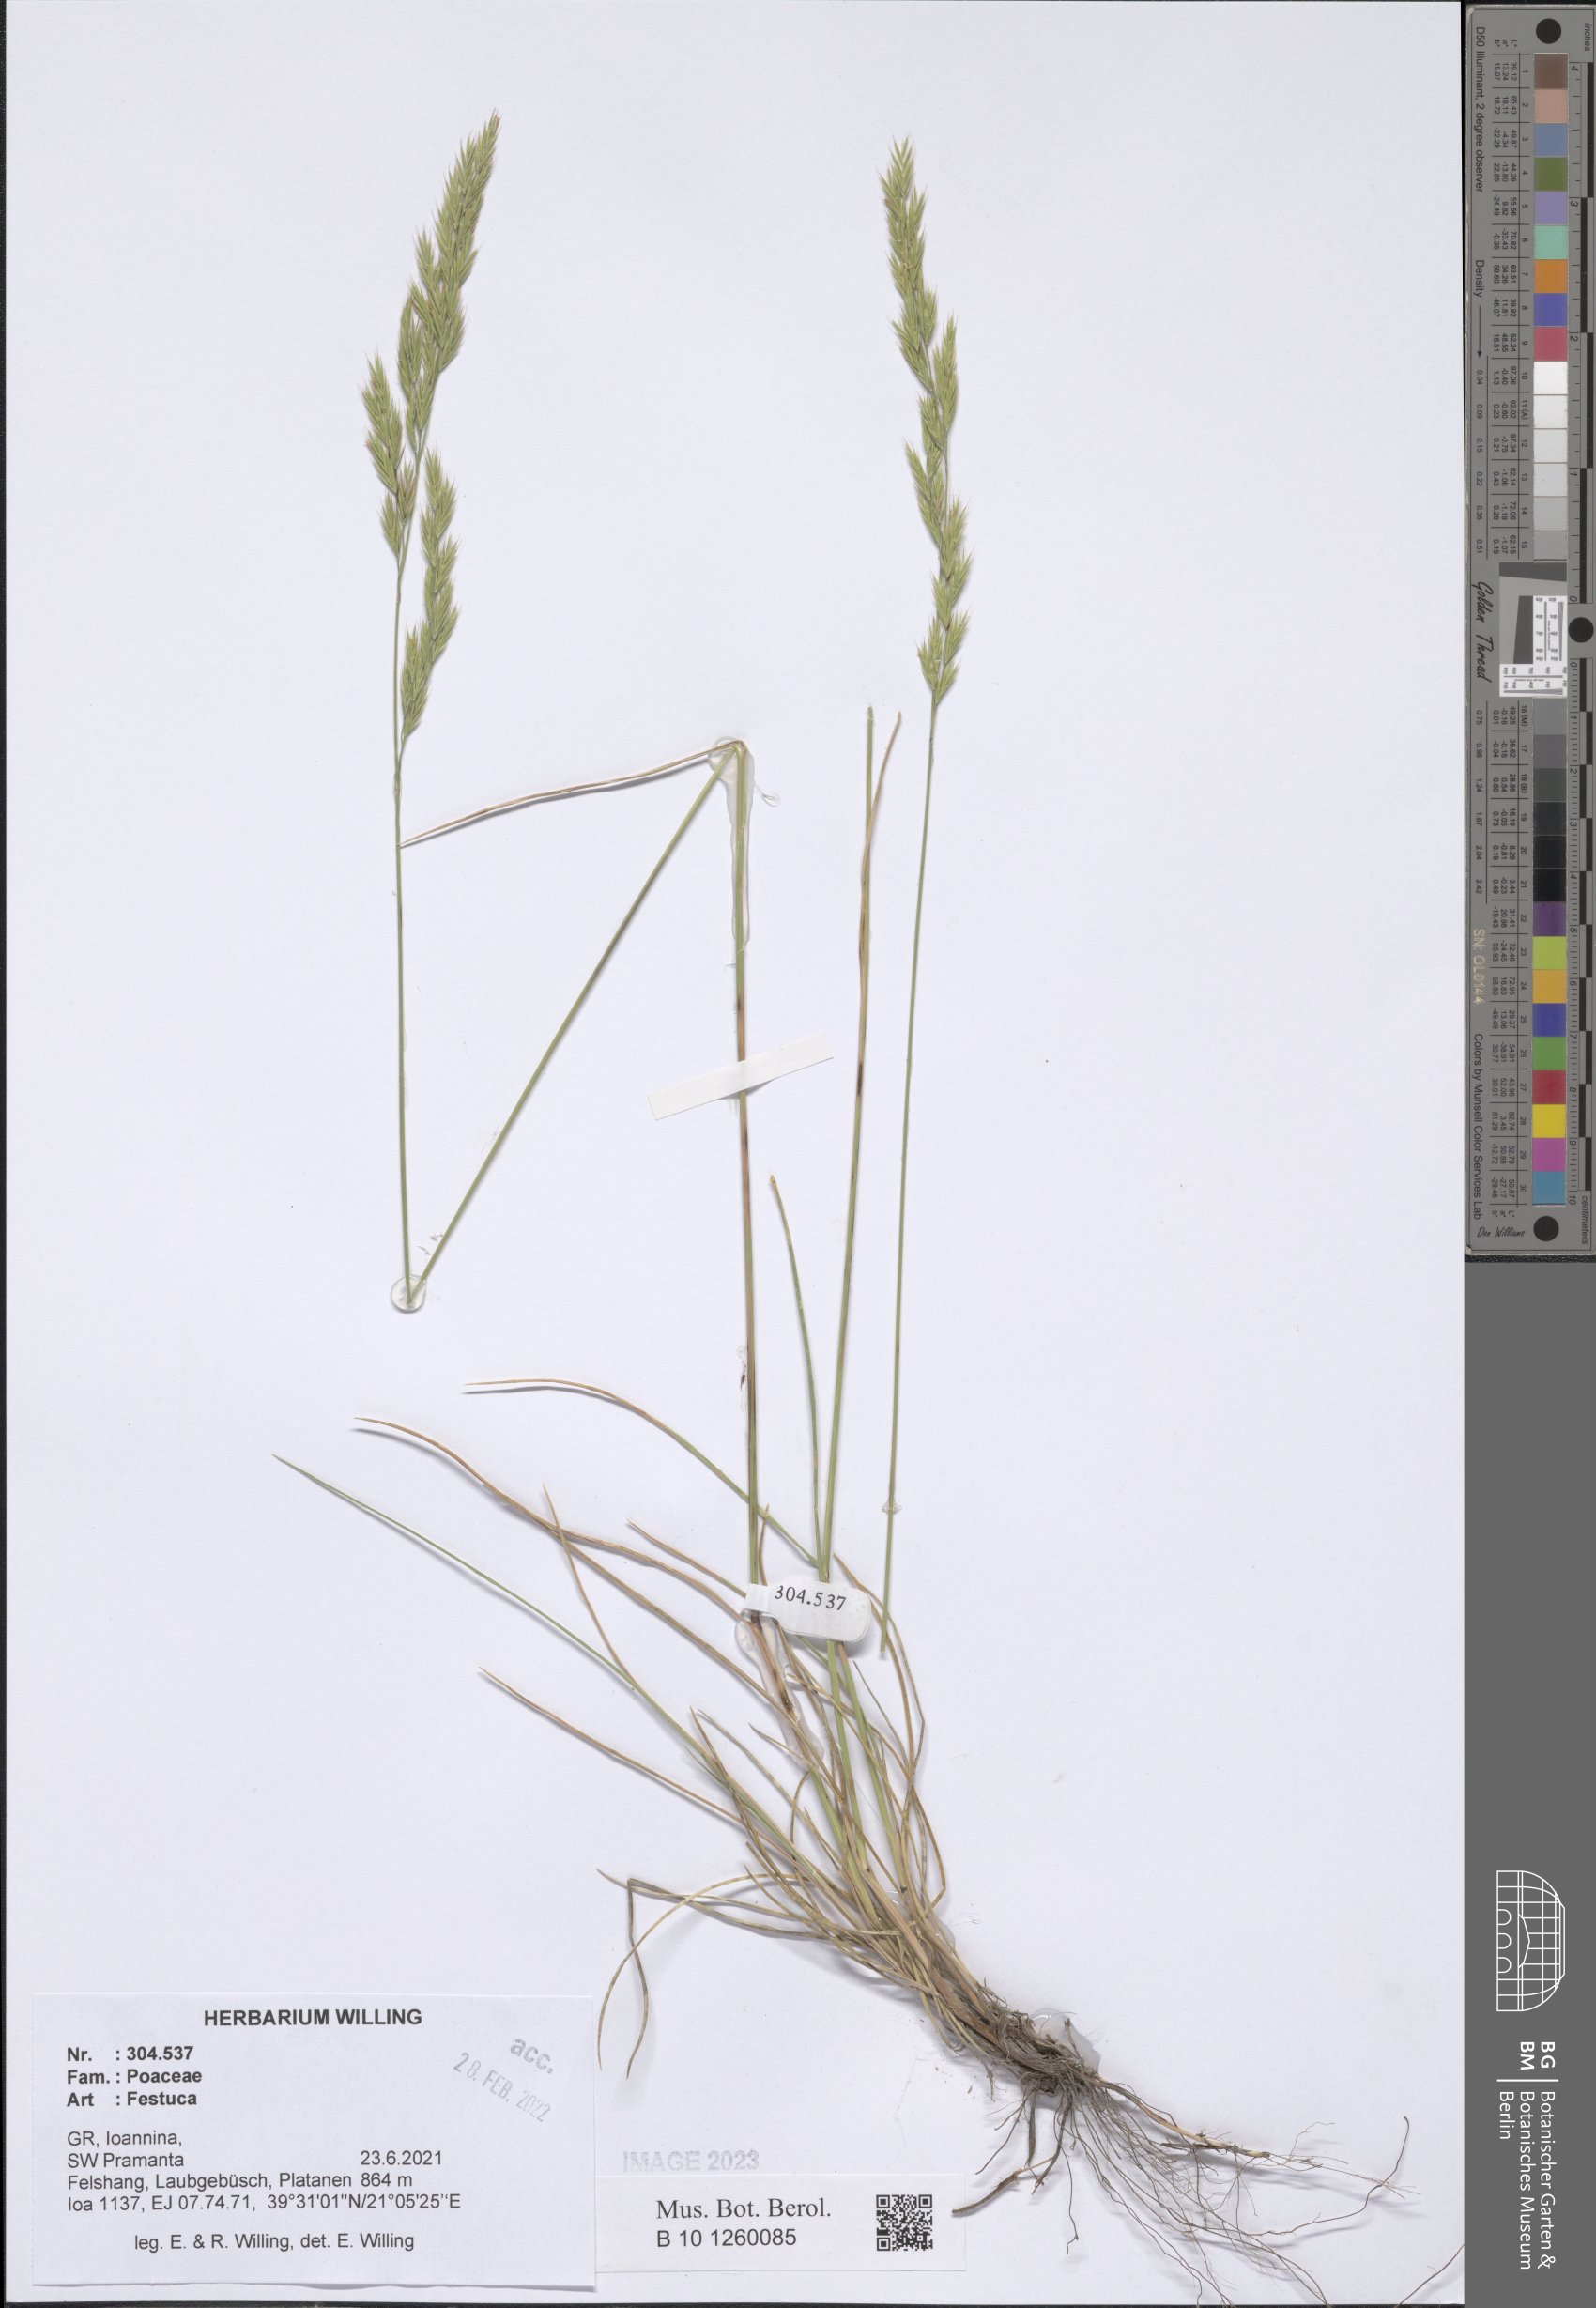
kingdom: Plantae
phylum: Tracheophyta
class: Liliopsida
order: Poales
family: Poaceae
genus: Festuca
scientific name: Festuca
